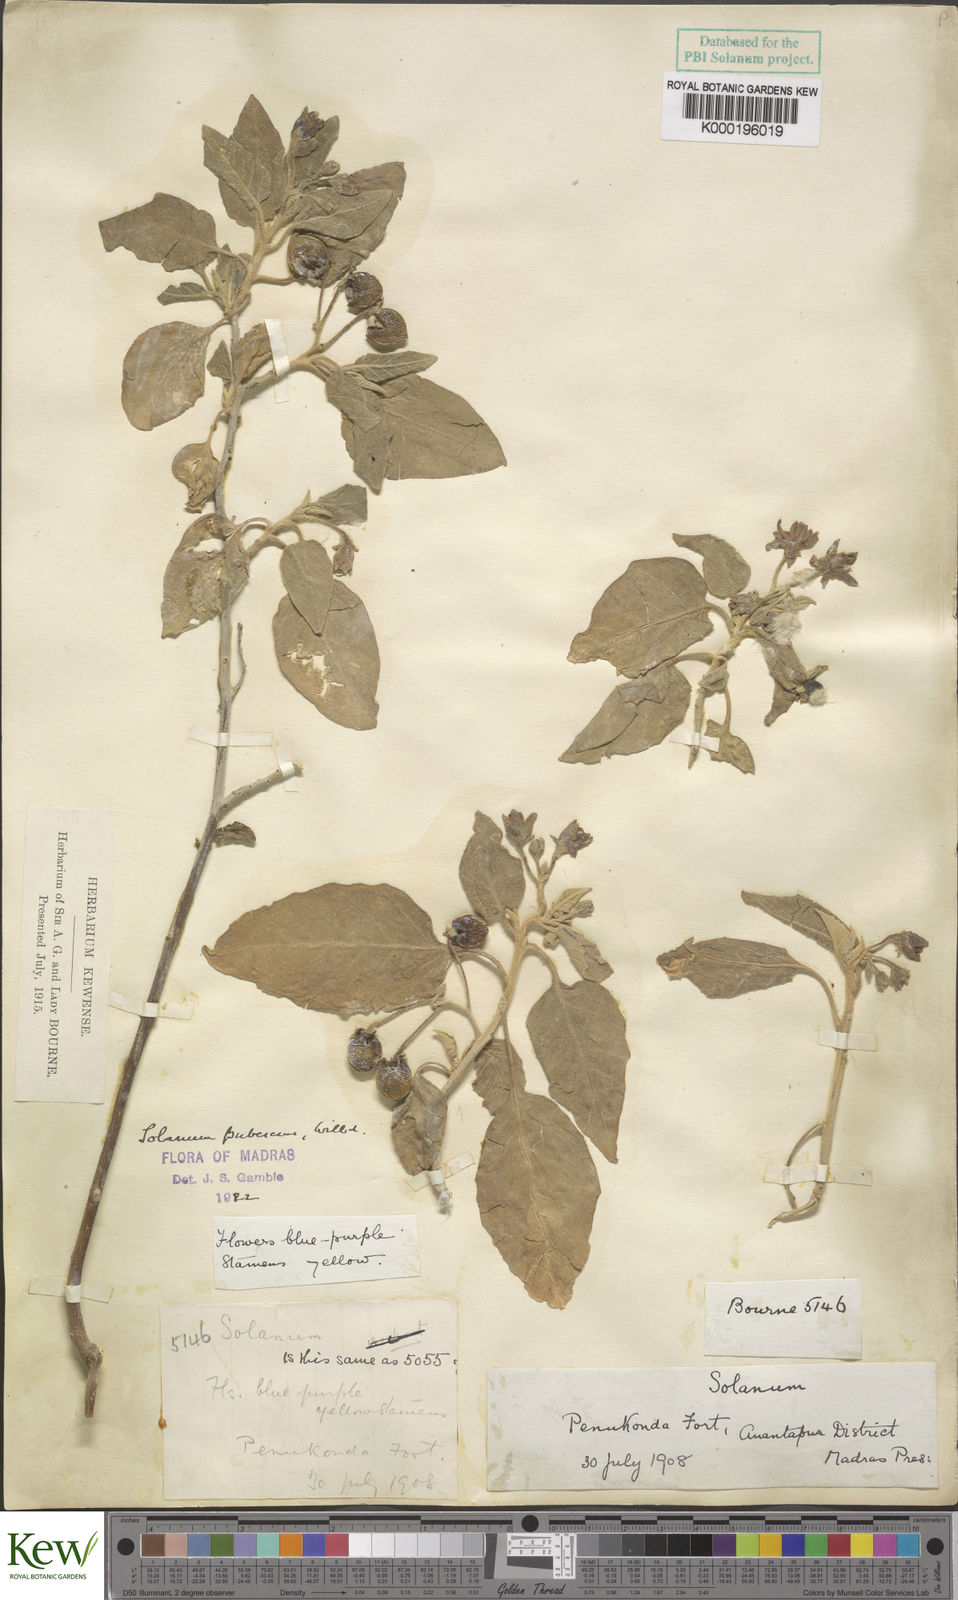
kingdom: Plantae
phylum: Tracheophyta
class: Magnoliopsida
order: Solanales
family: Solanaceae
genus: Solanum
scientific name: Solanum pubescens
